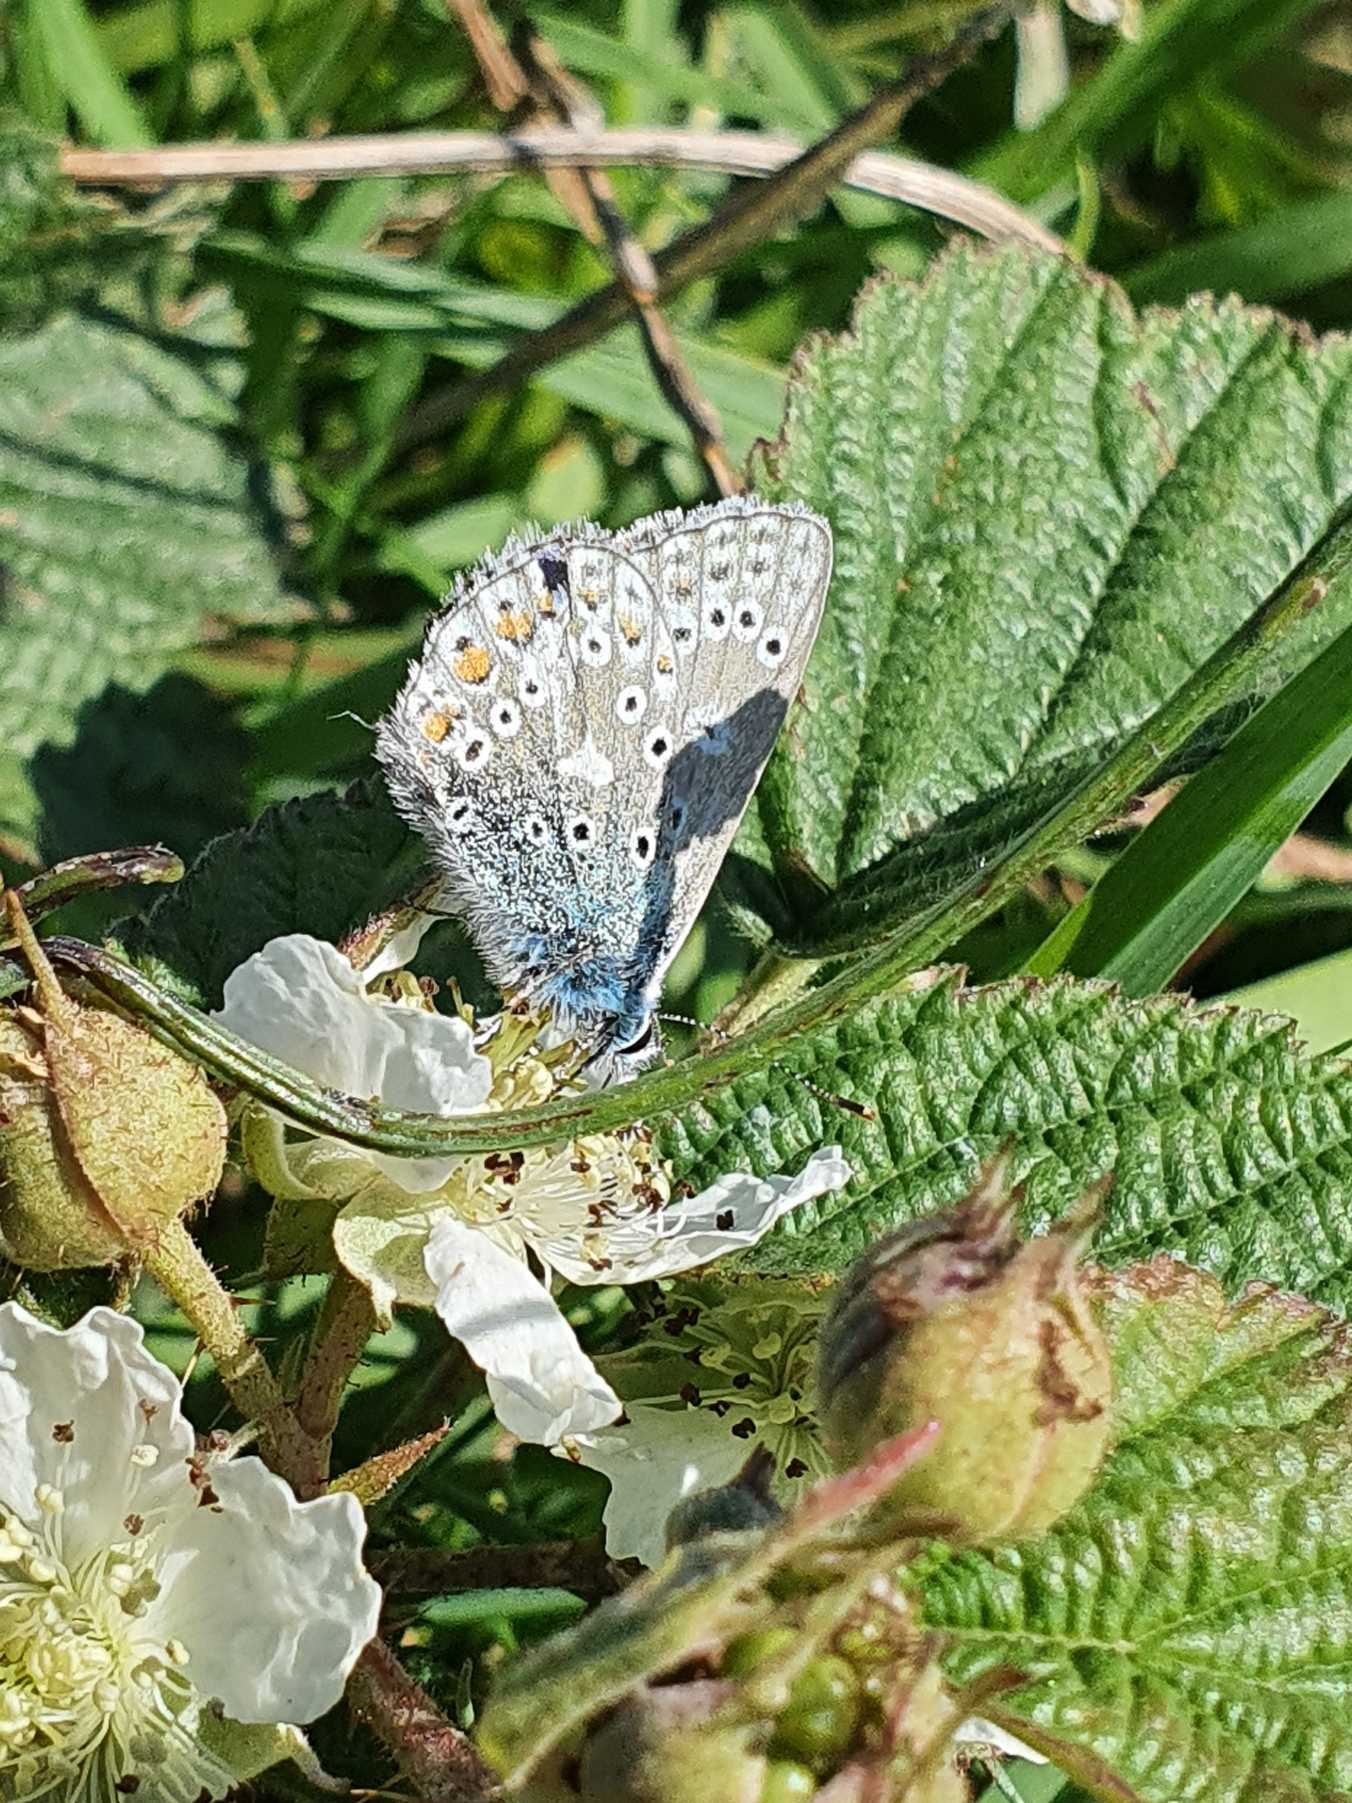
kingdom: Animalia
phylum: Arthropoda
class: Insecta
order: Lepidoptera
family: Lycaenidae
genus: Polyommatus
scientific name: Polyommatus icarus
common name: Almindelig blåfugl
